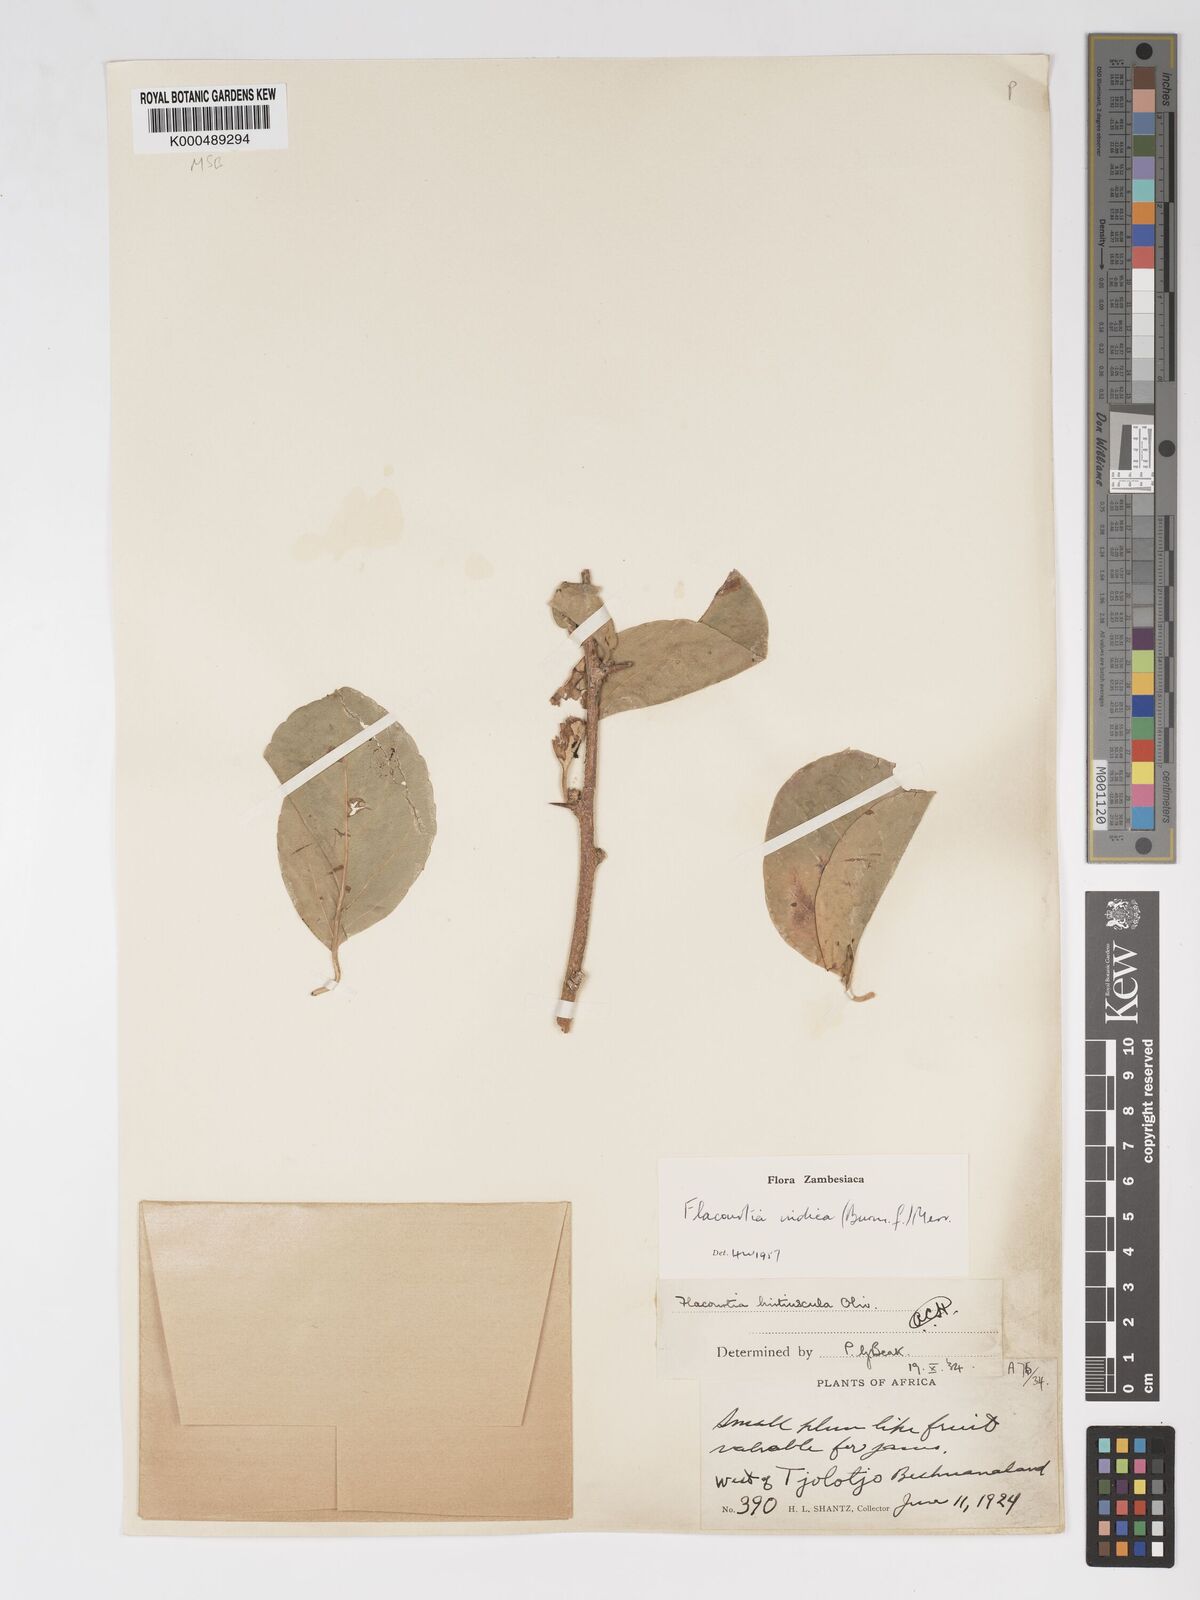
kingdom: Plantae
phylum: Tracheophyta
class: Magnoliopsida
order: Malpighiales
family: Salicaceae
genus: Flacourtia
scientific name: Flacourtia indica
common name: Governor's plum
